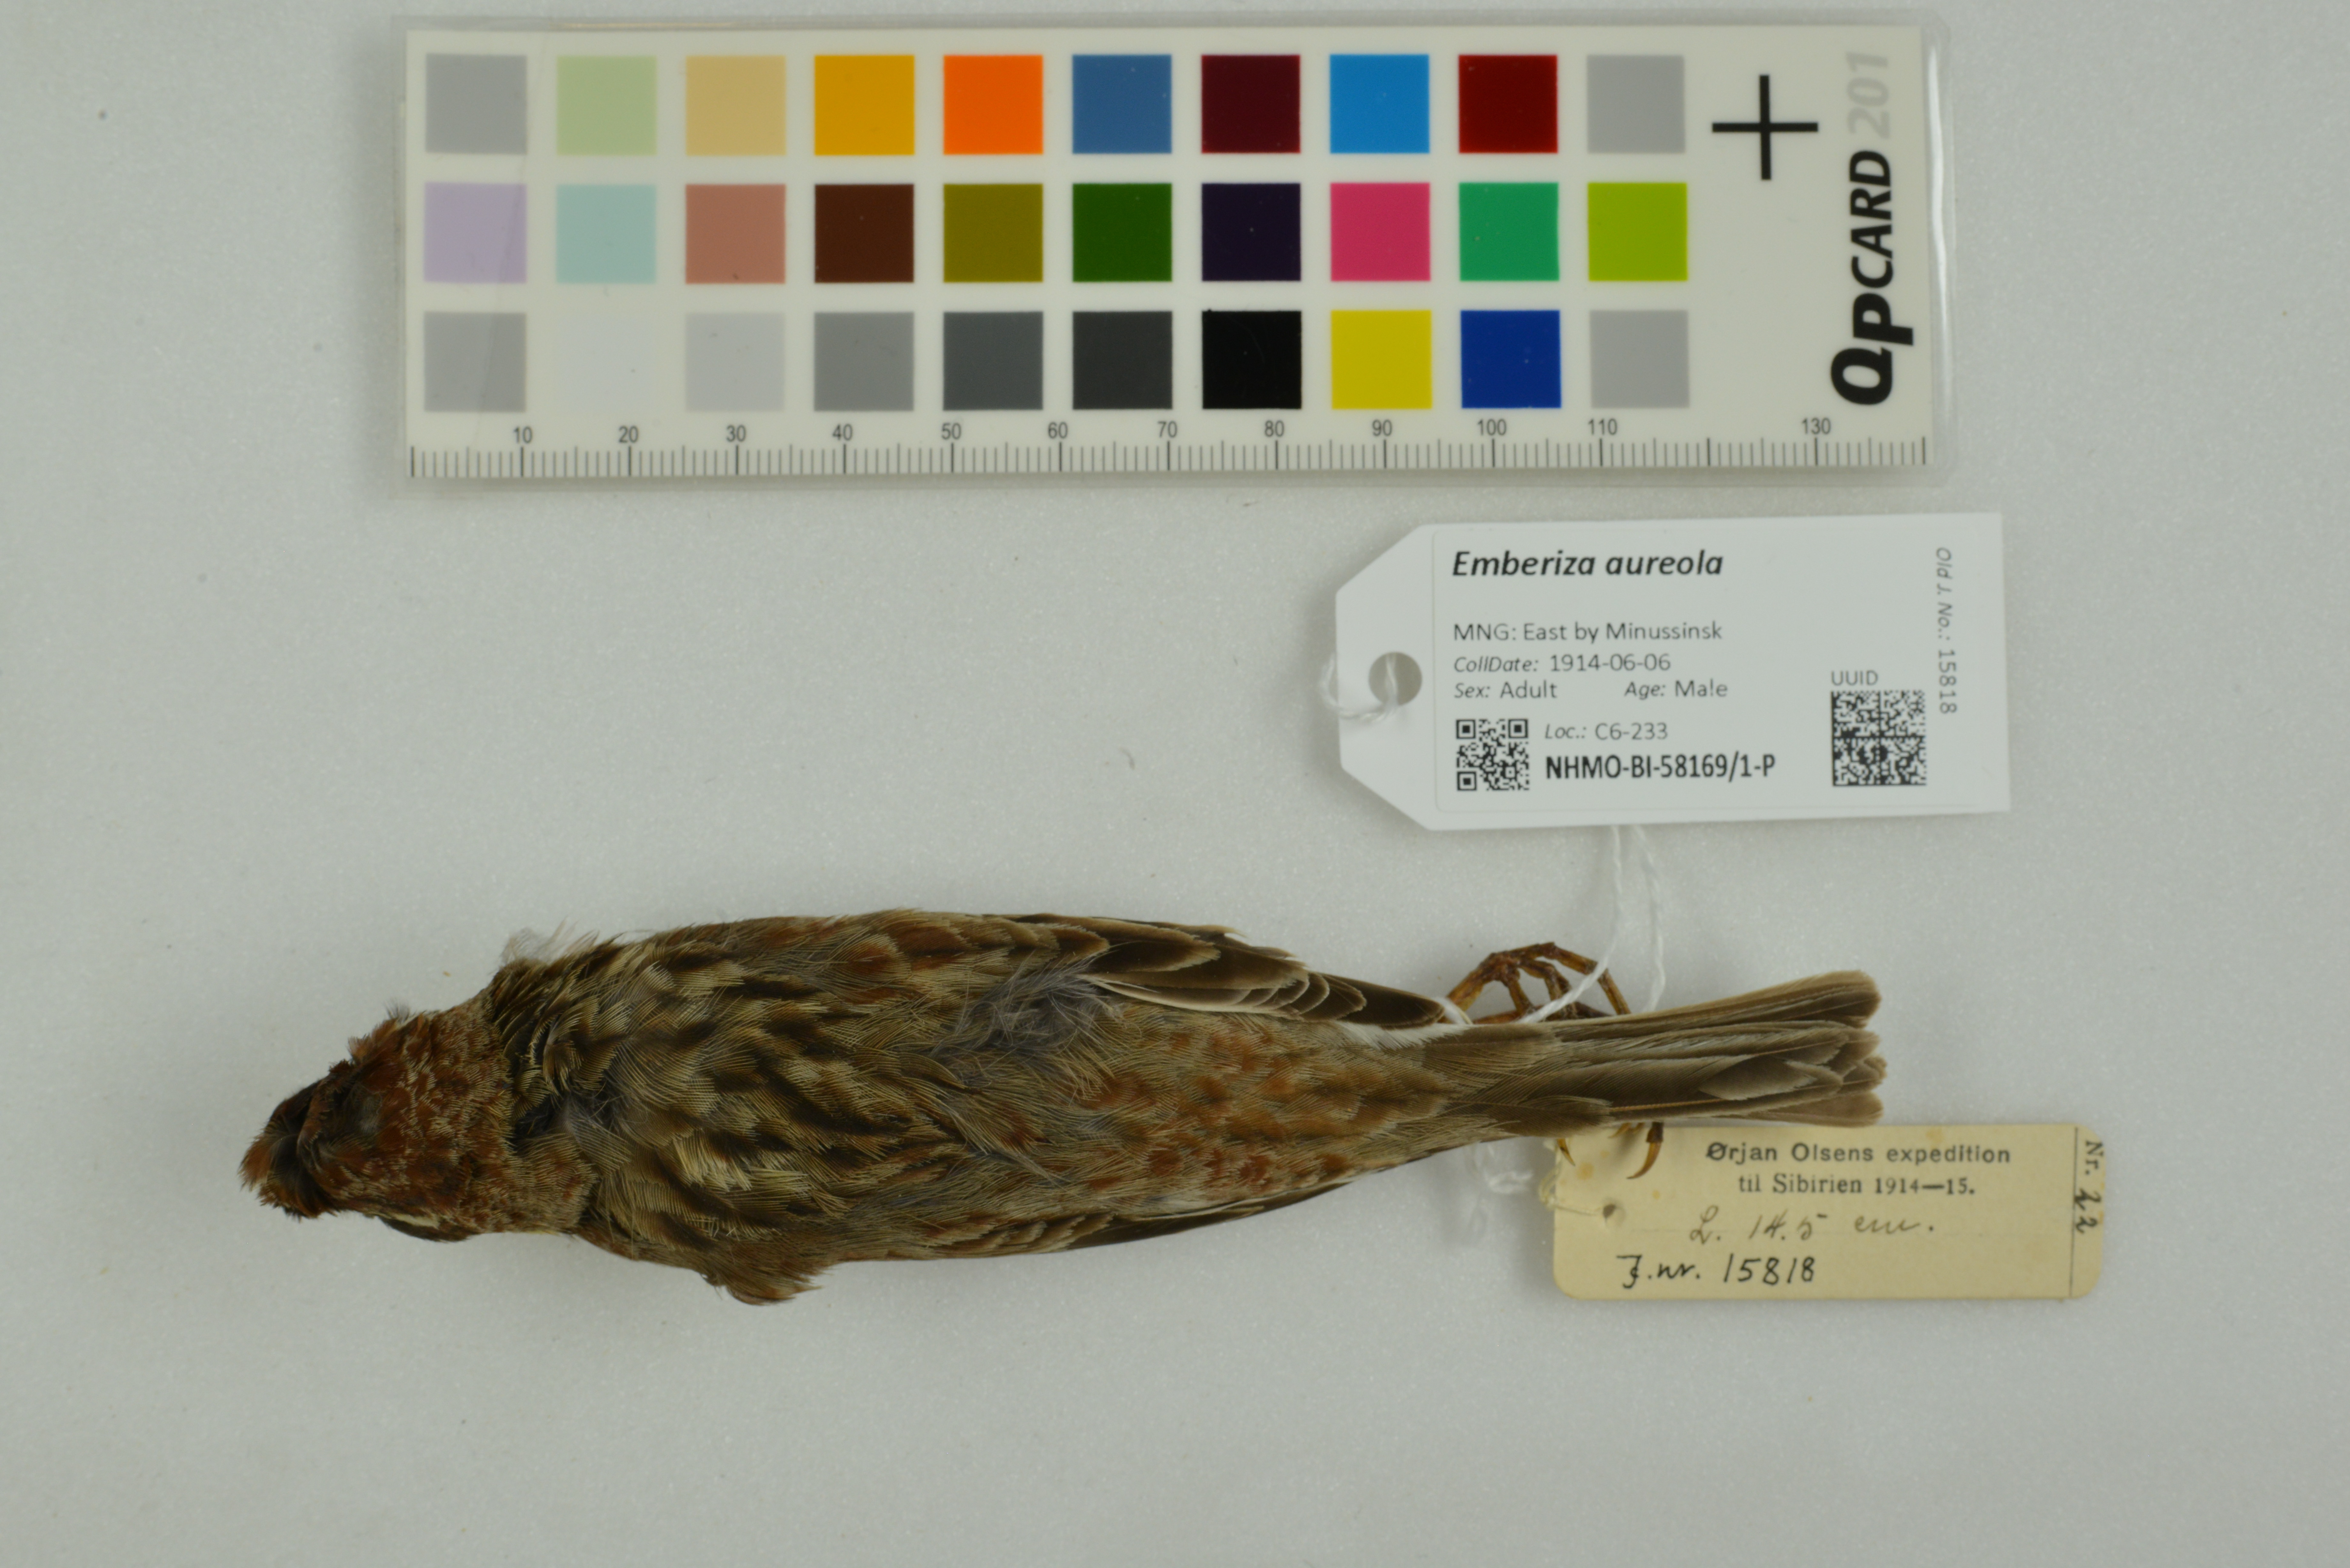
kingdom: Animalia
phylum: Chordata
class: Aves
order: Passeriformes
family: Emberizidae
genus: Emberiza
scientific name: Emberiza aureola
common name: Yellow-breasted bunting
